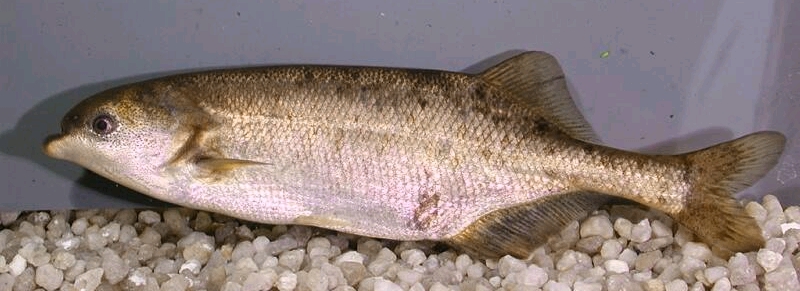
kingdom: Animalia
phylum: Chordata
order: Osteoglossiformes
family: Mormyridae
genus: Marcusenius
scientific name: Marcusenius macrolepidotus
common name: Bulldog
